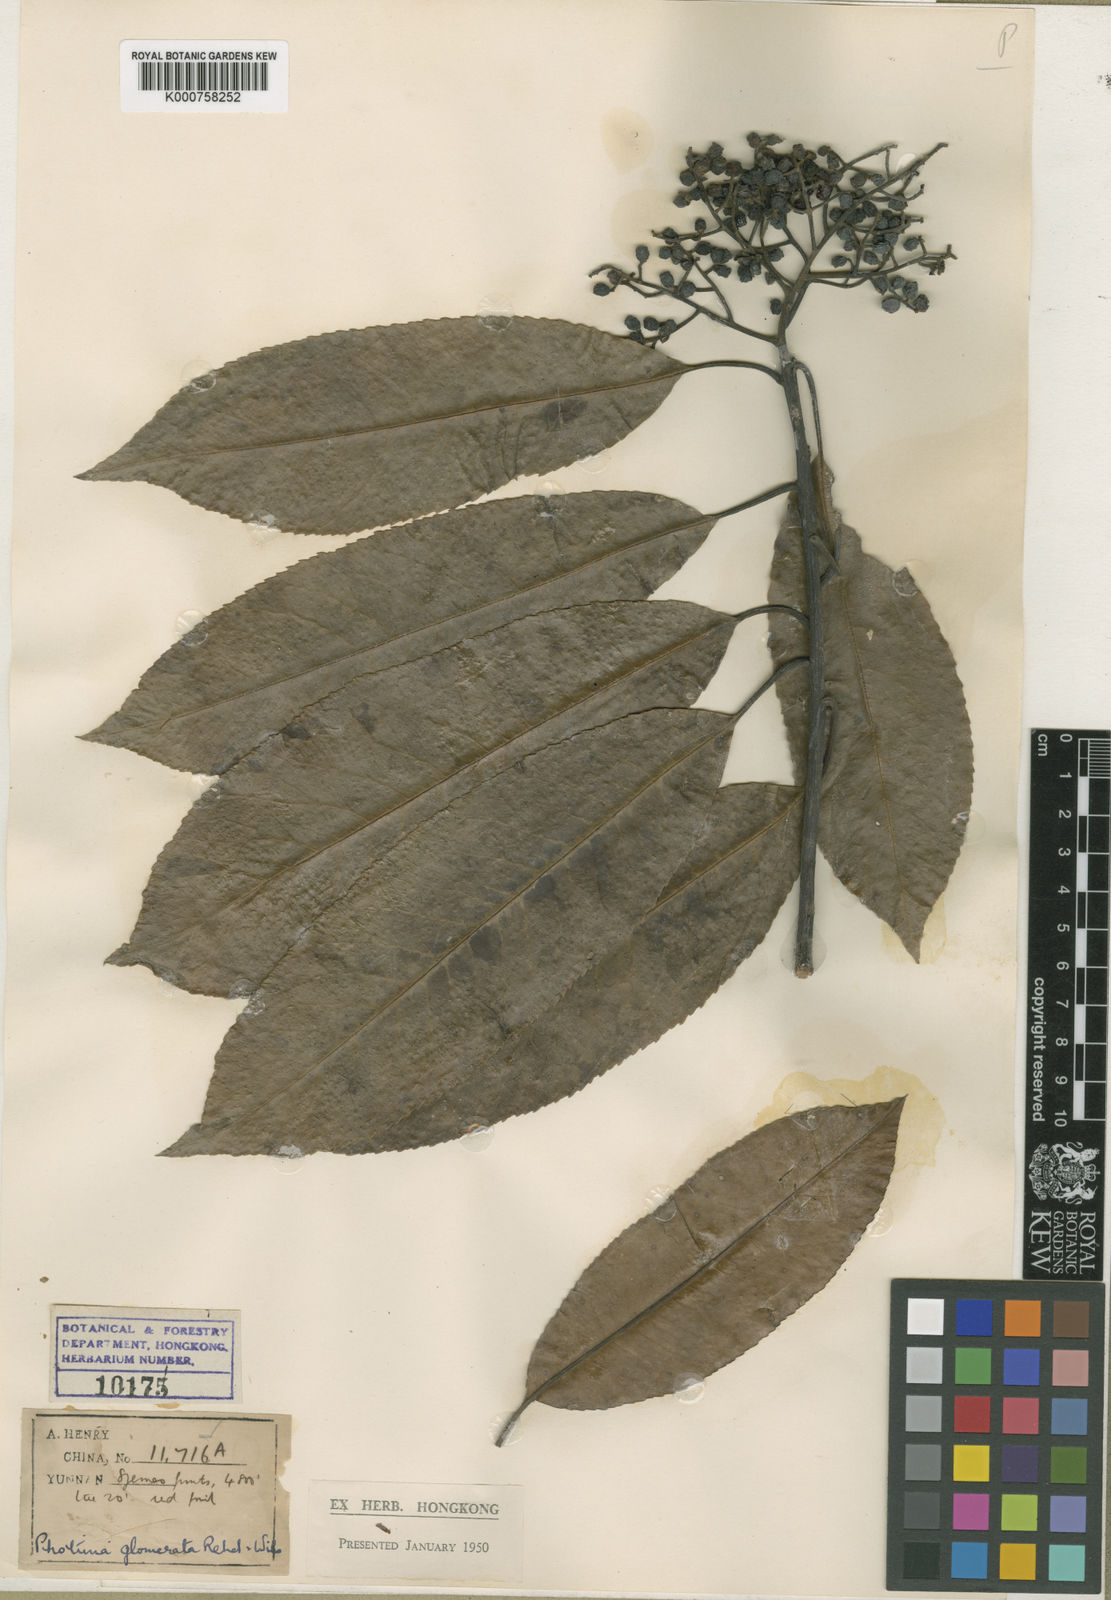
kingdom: Plantae
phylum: Tracheophyta
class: Magnoliopsida
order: Rosales
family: Rosaceae
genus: Photinia
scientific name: Photinia griffithii
